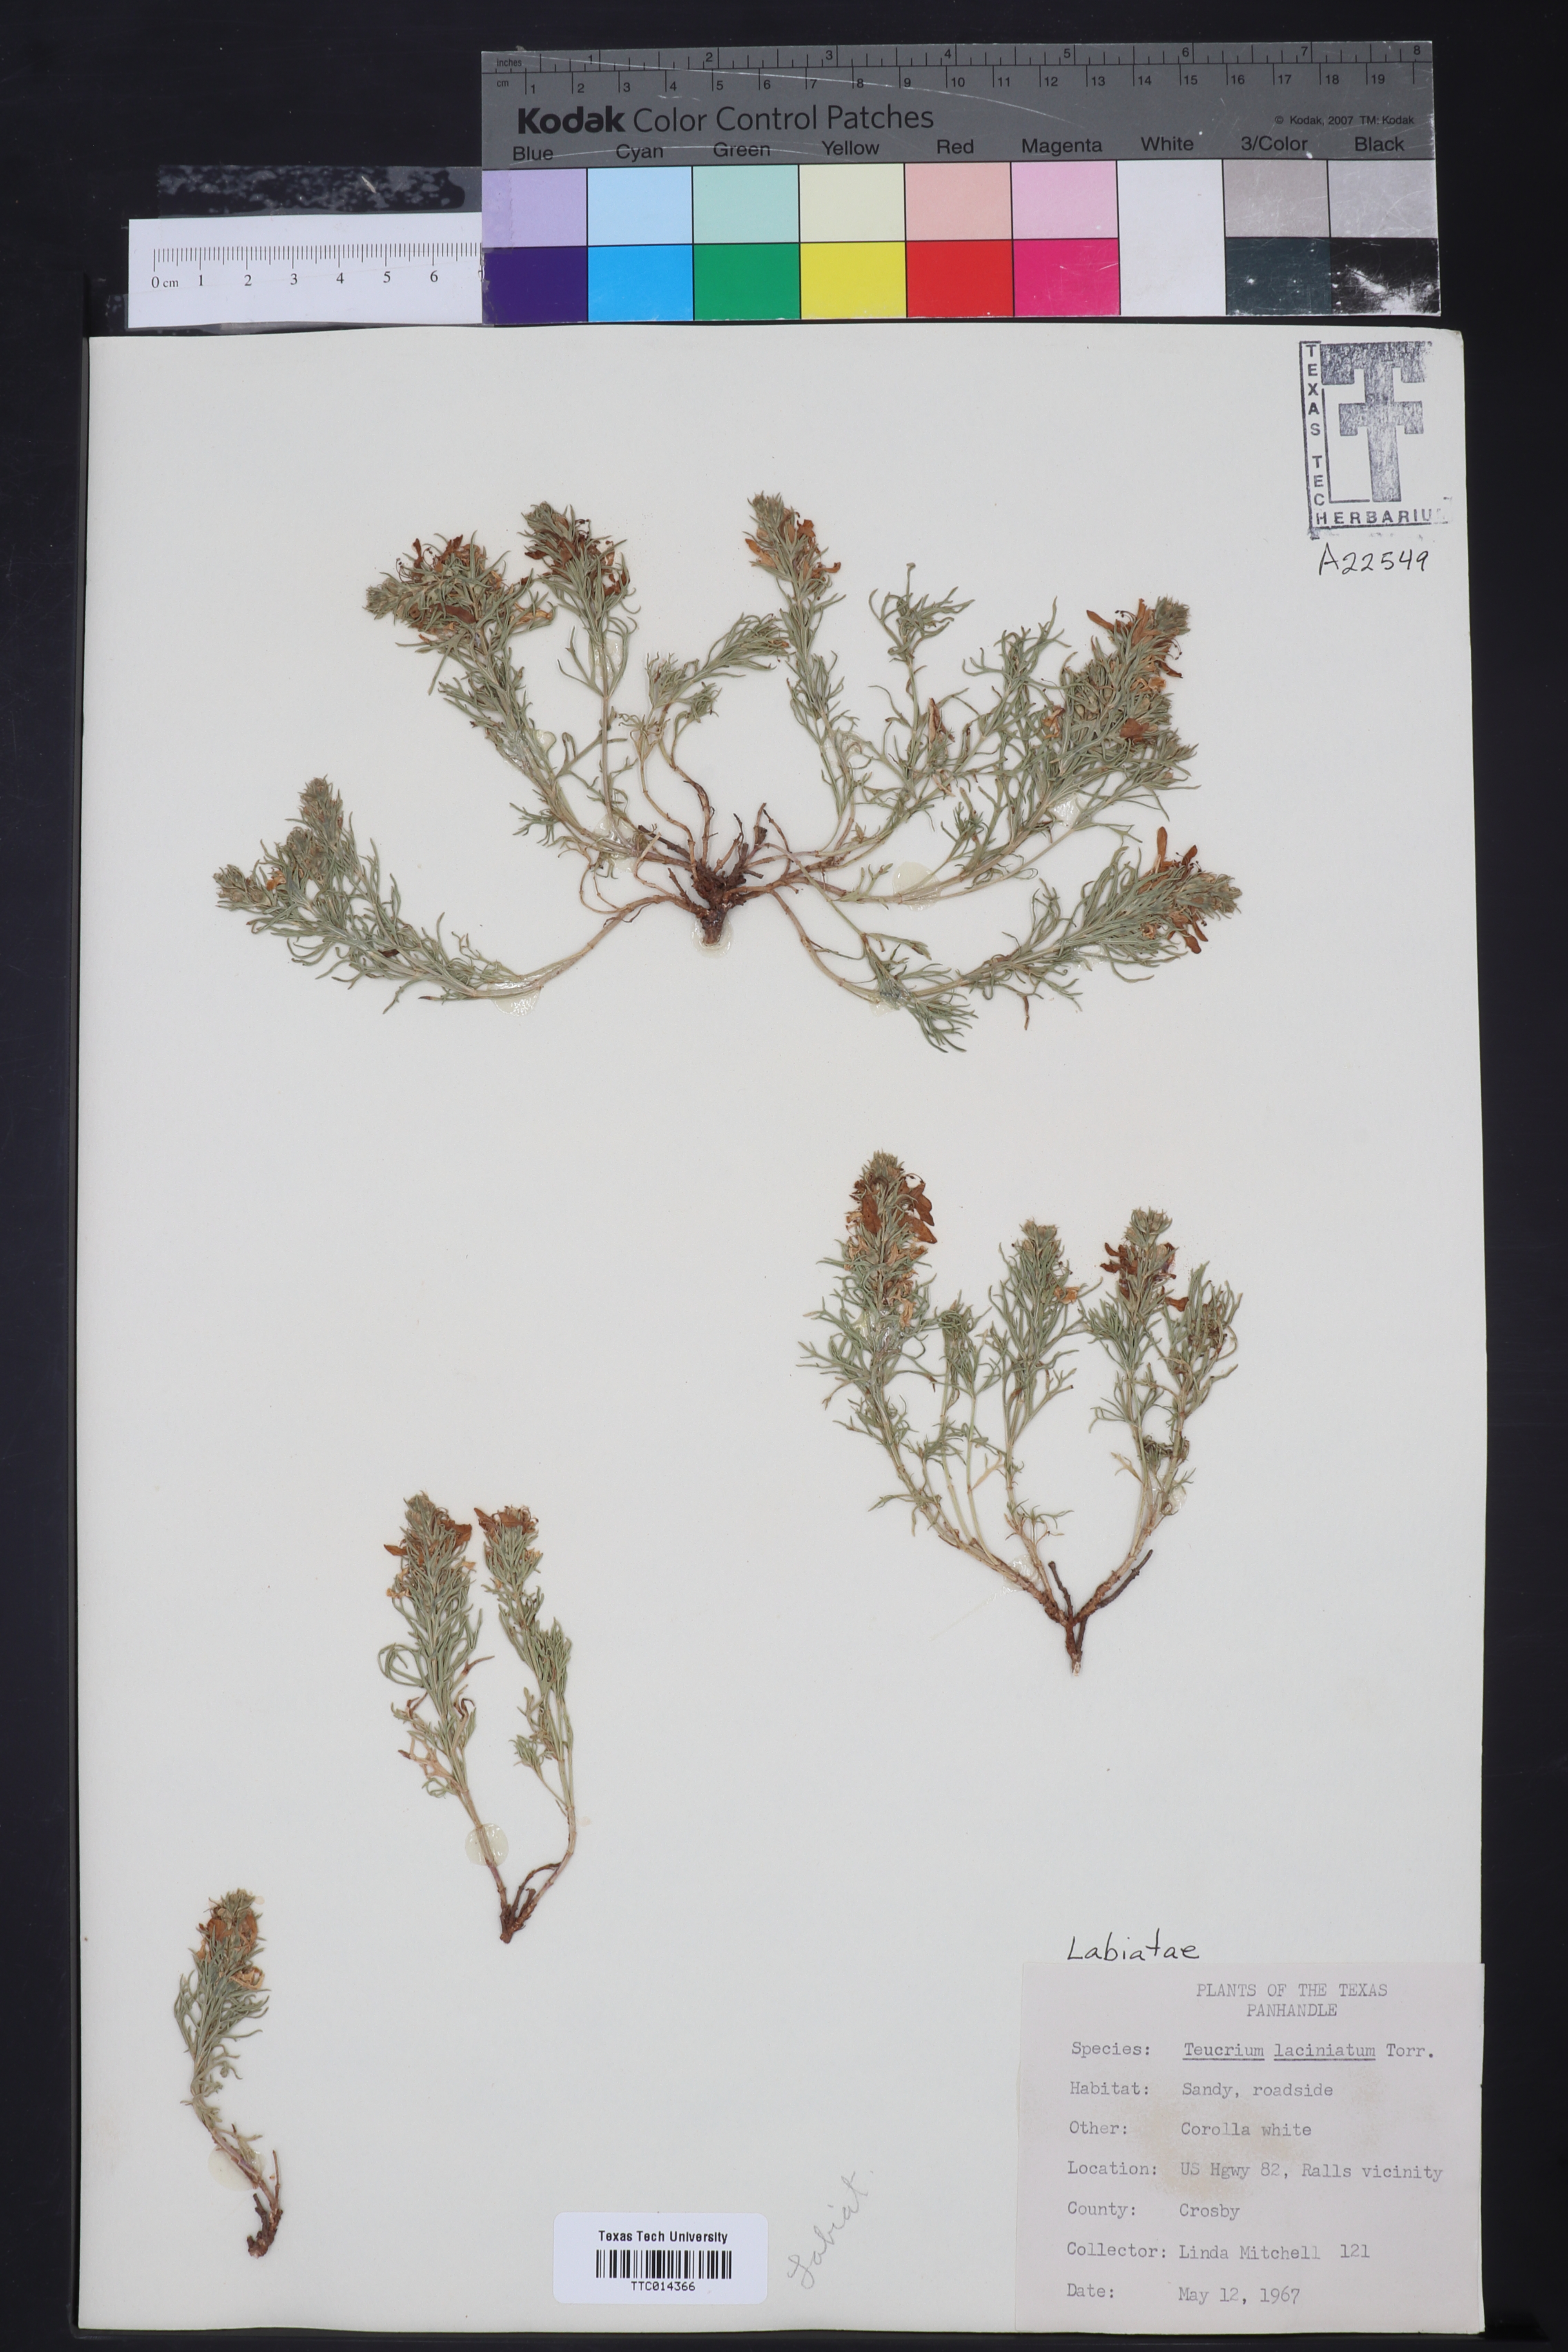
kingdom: Plantae
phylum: Tracheophyta
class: Magnoliopsida
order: Lamiales
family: Lamiaceae
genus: Teucrium
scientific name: Teucrium laciniatum
